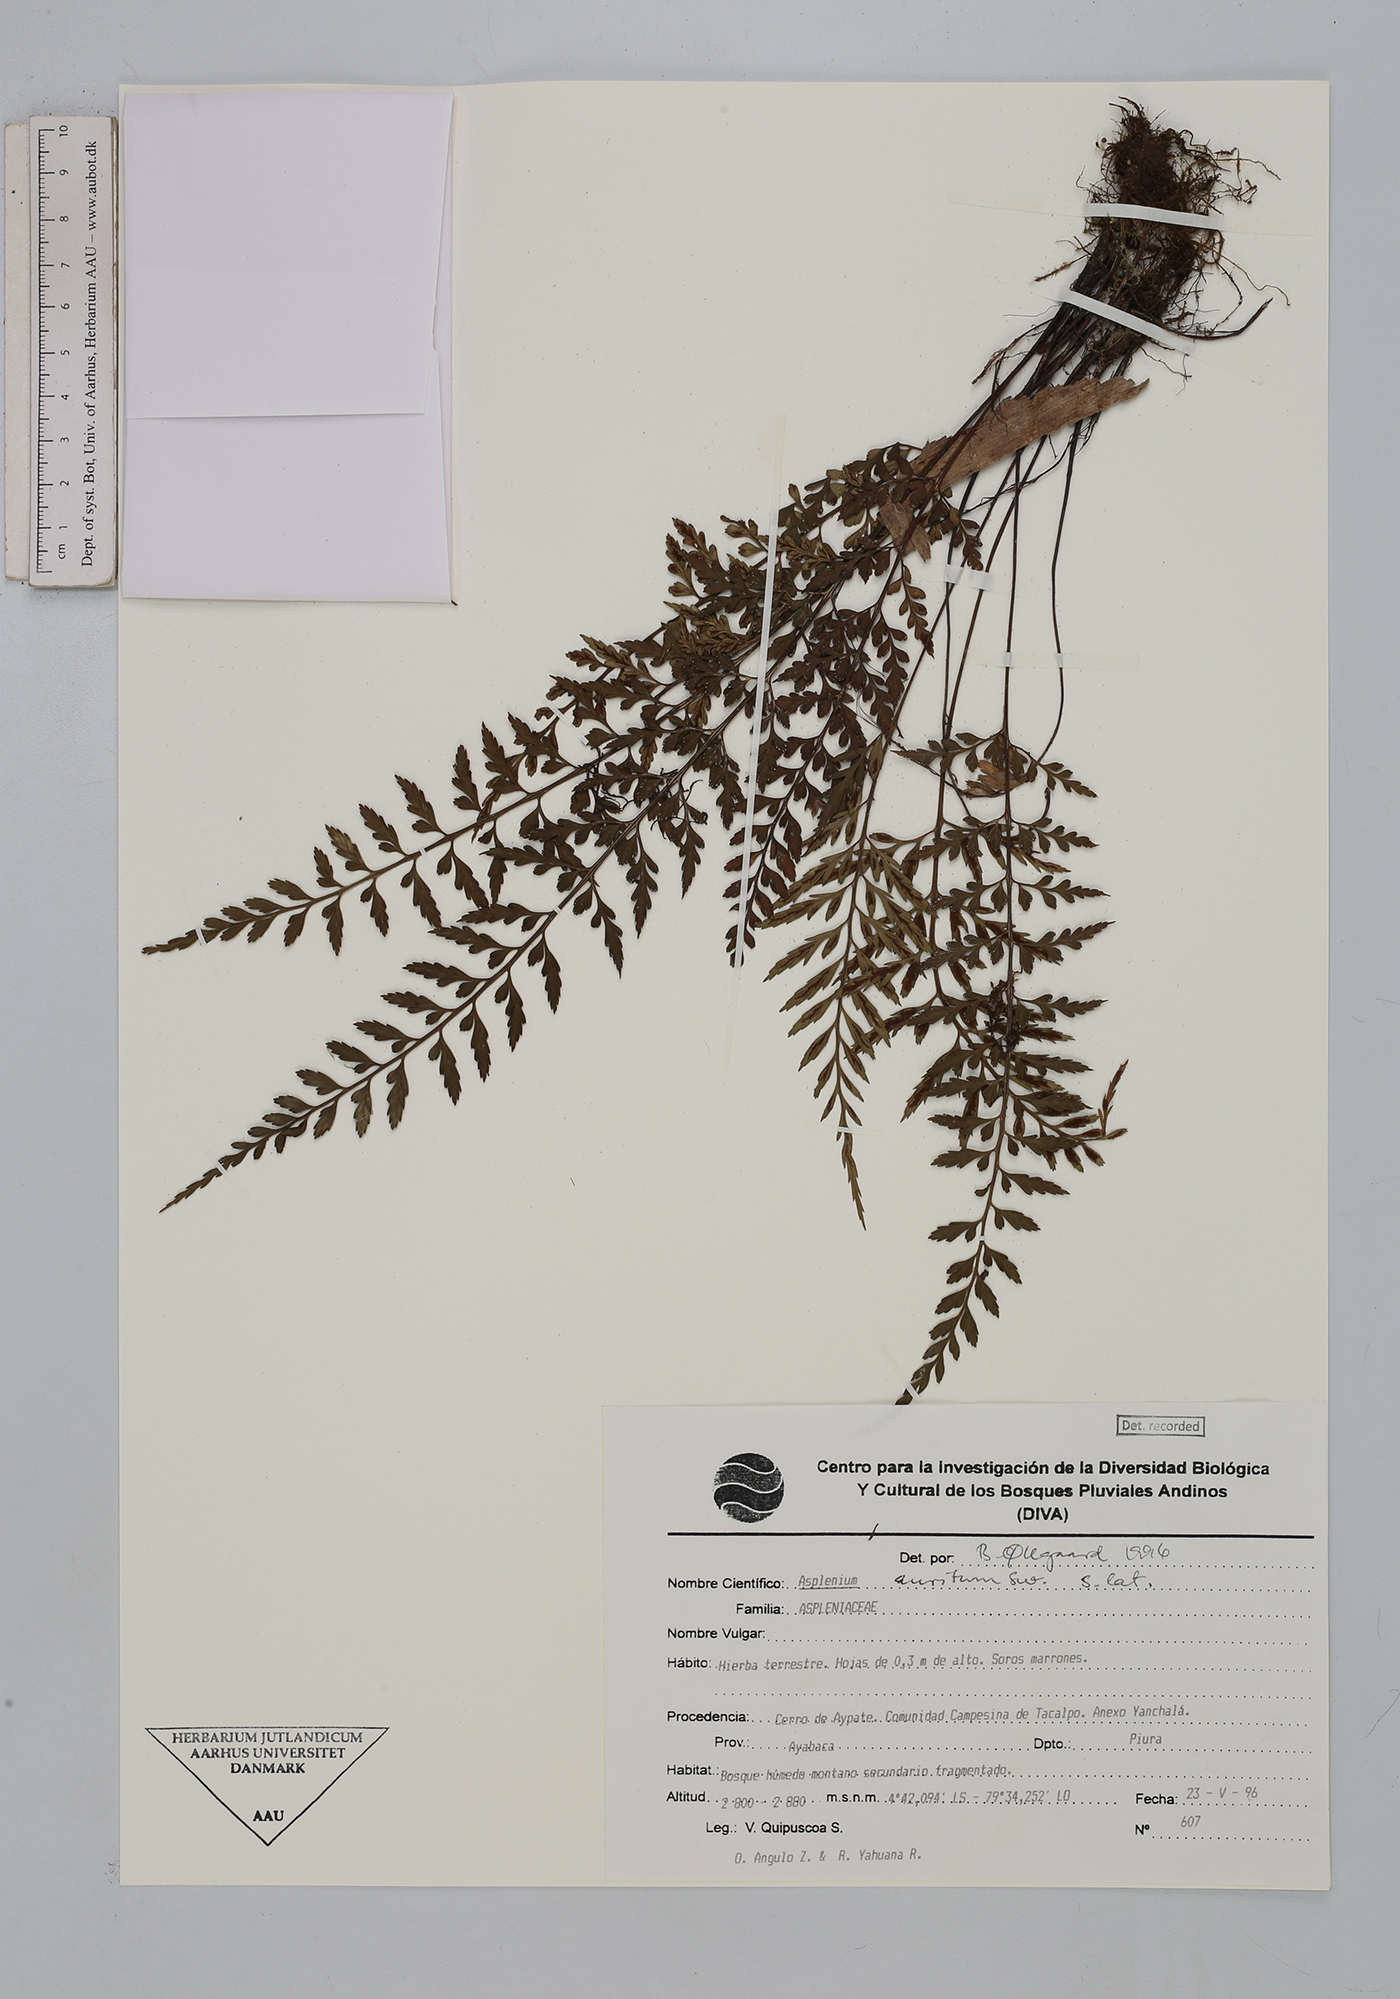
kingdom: Plantae
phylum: Tracheophyta
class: Polypodiopsida
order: Polypodiales
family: Aspleniaceae
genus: Asplenium
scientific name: Asplenium auritum
